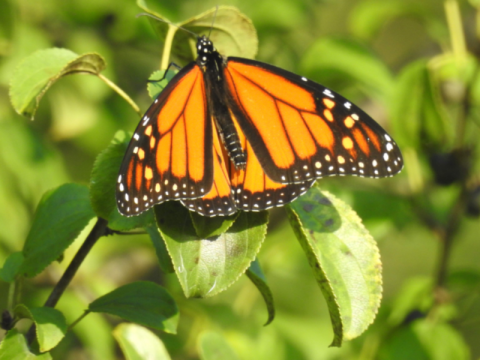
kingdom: Animalia
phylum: Arthropoda
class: Insecta
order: Lepidoptera
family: Nymphalidae
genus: Danaus
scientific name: Danaus plexippus
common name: Monarch
